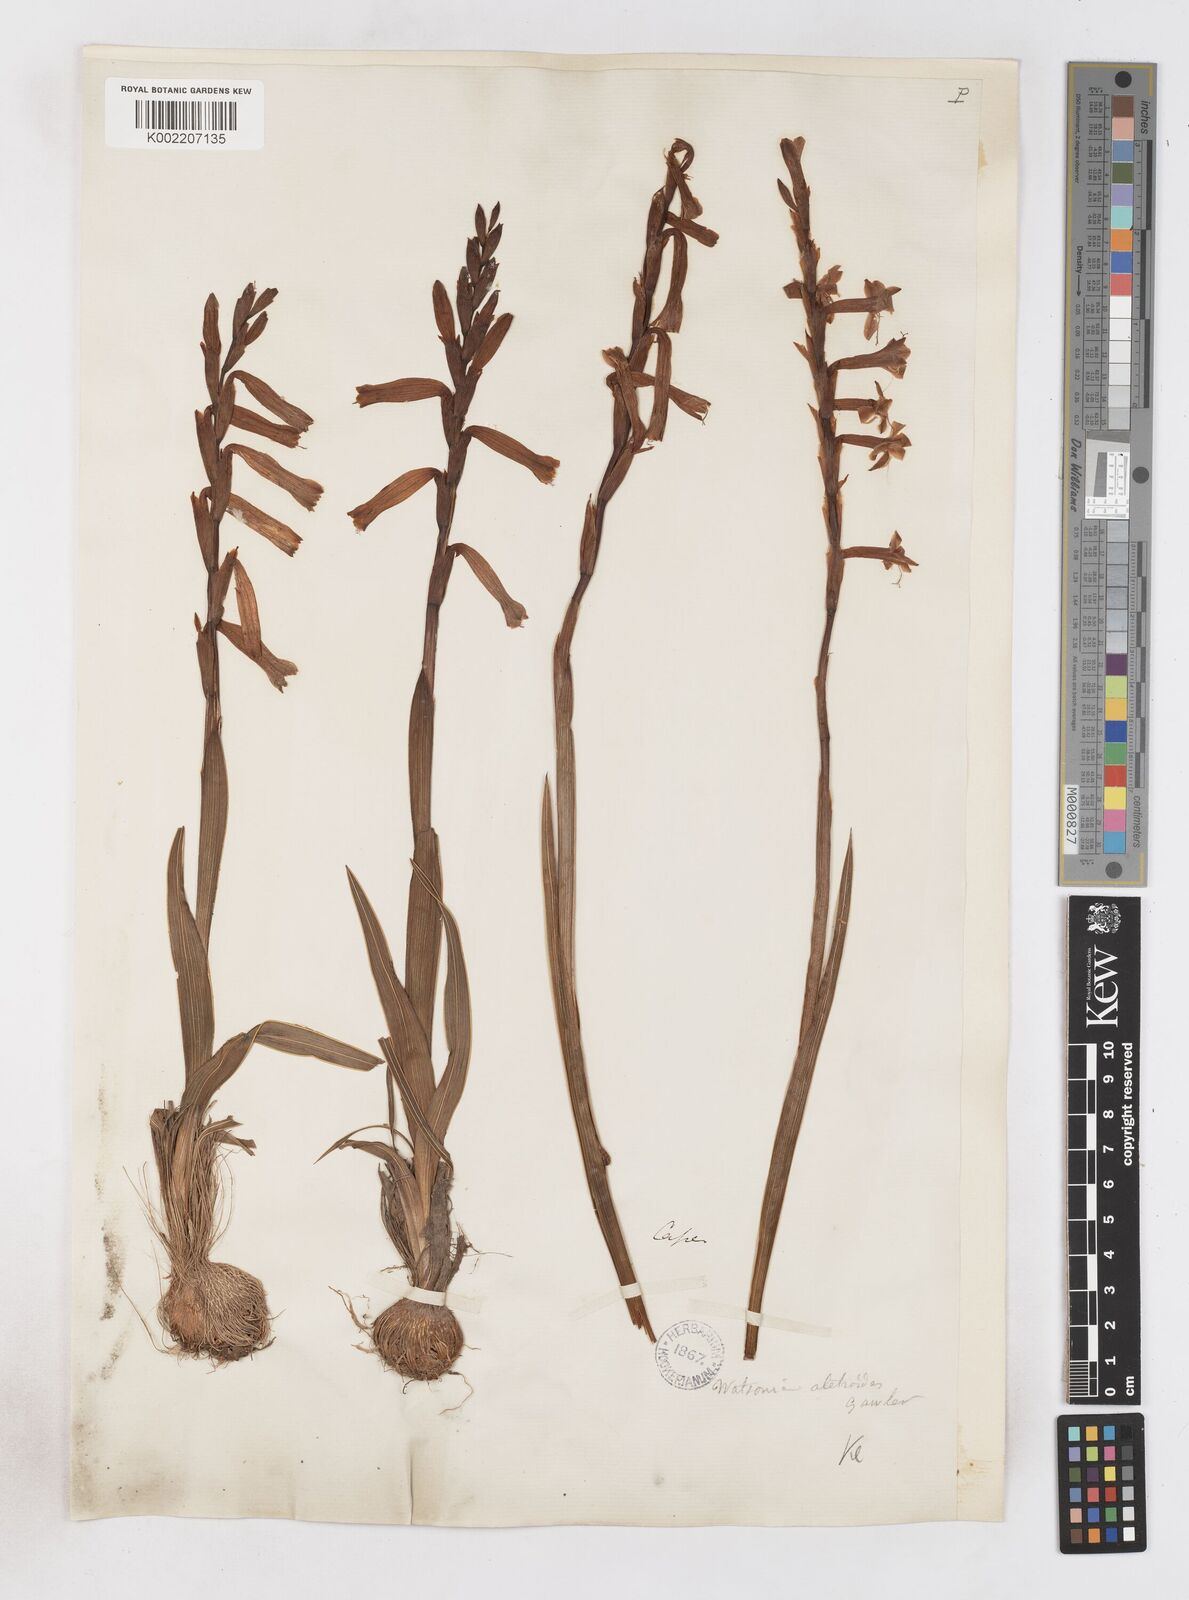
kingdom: Plantae
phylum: Tracheophyta
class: Liliopsida
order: Asparagales
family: Iridaceae
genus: Watsonia
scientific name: Watsonia aletroides
